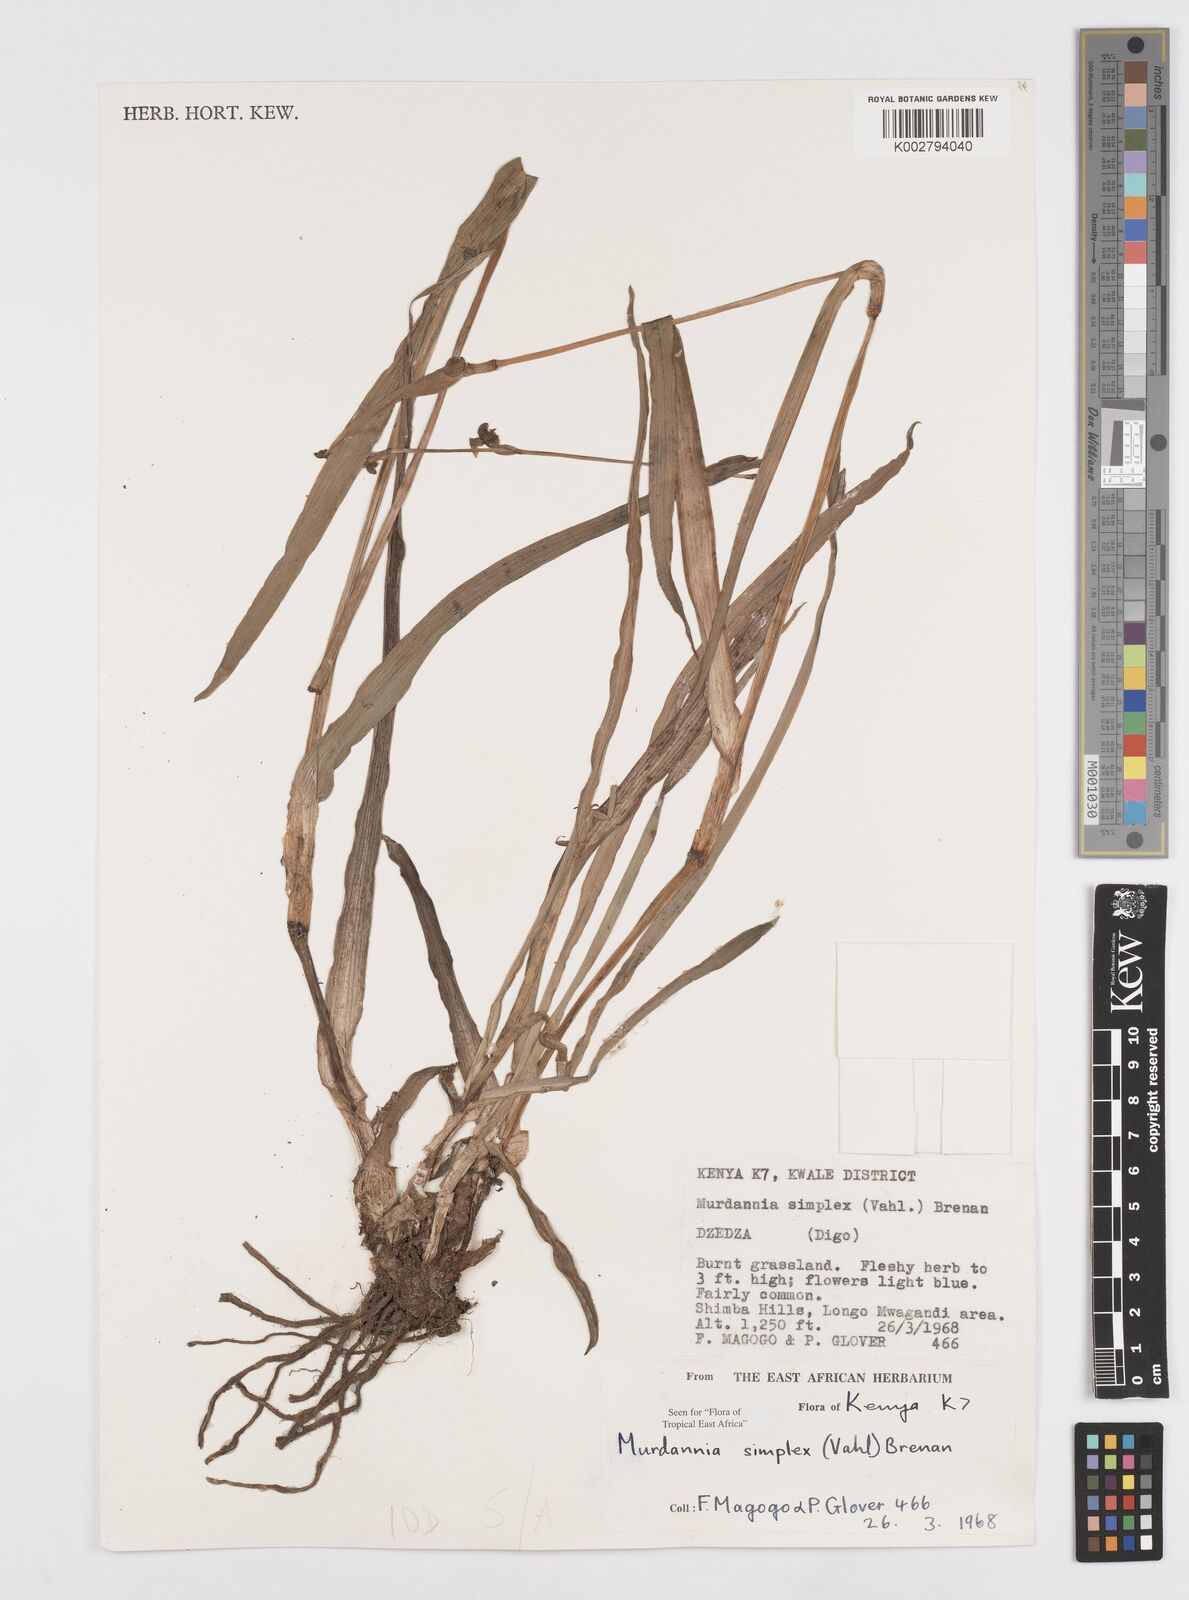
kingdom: Plantae
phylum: Tracheophyta
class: Liliopsida
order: Commelinales
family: Commelinaceae
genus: Murdannia
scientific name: Murdannia simplex
